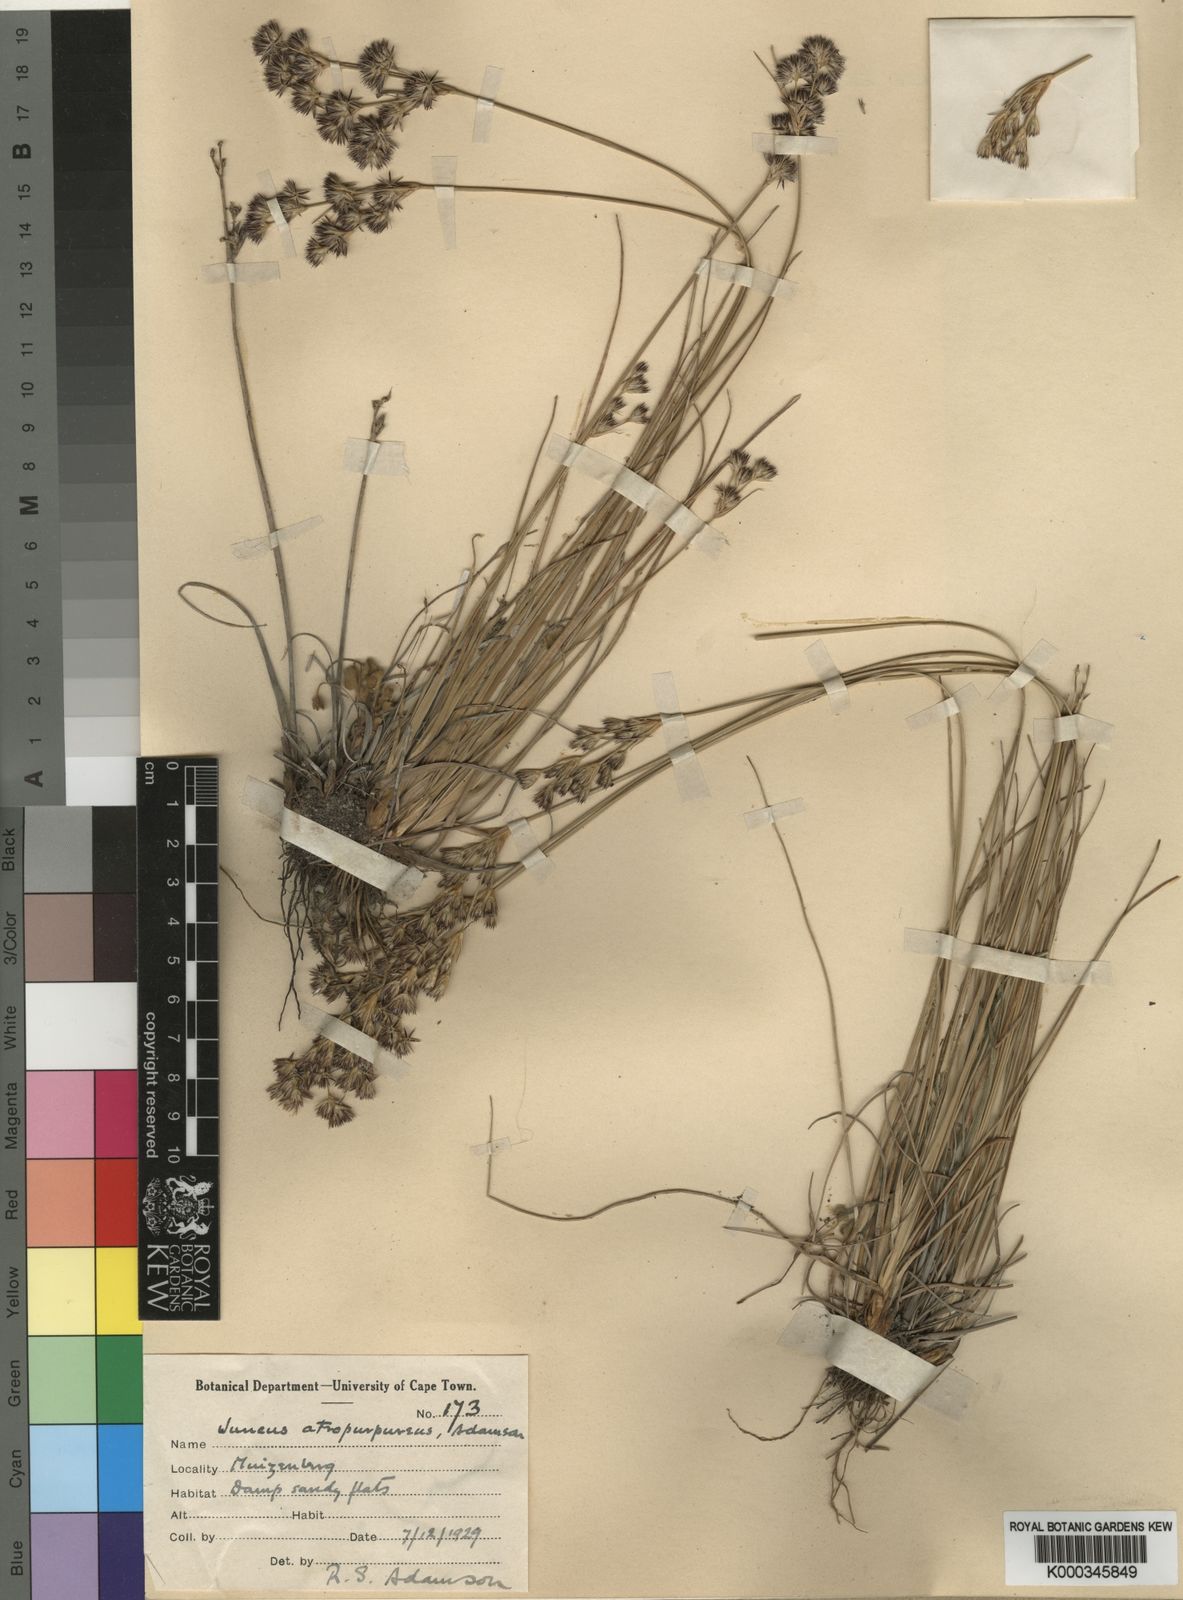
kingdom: Plantae
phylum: Tracheophyta
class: Liliopsida
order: Poales
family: Juncaceae
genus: Juncus
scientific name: Juncus capensis
